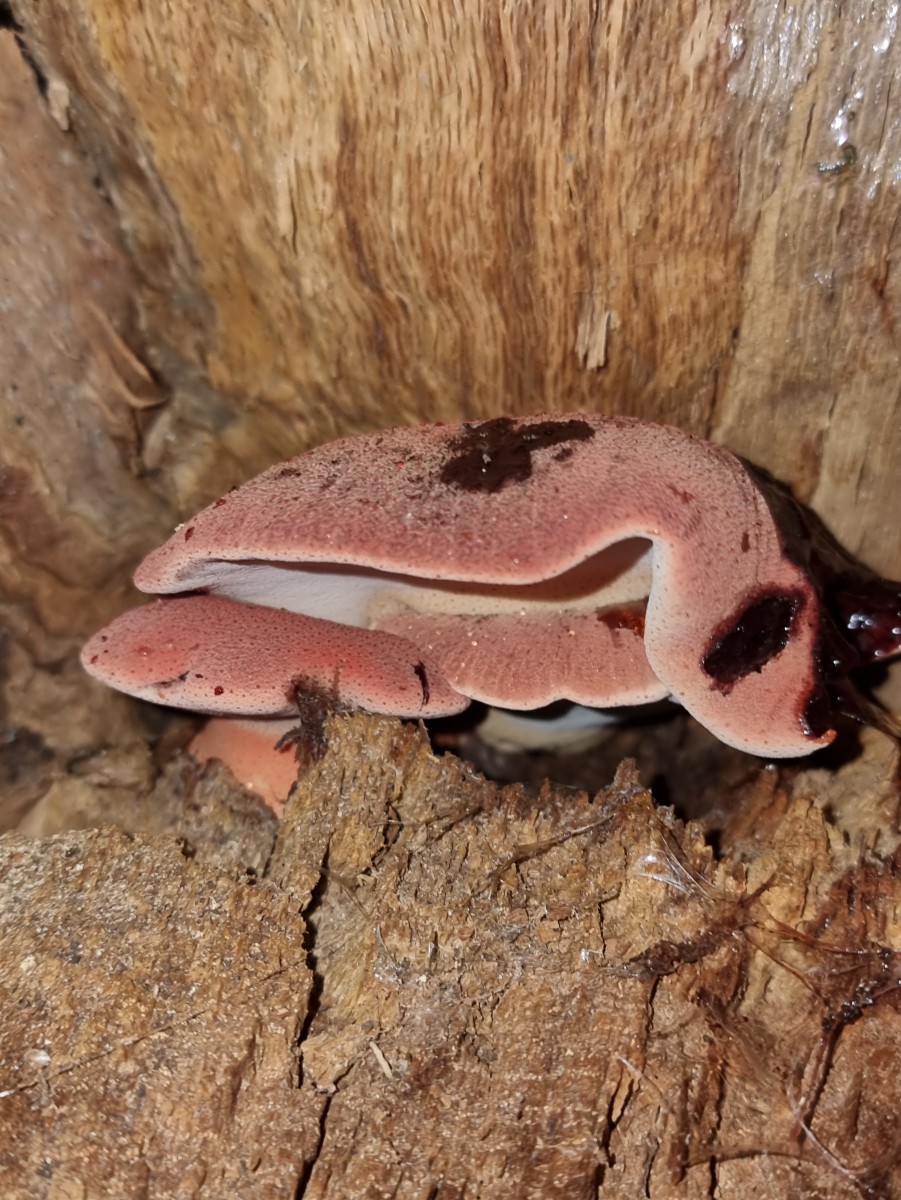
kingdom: Fungi
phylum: Basidiomycota
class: Agaricomycetes
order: Agaricales
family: Fistulinaceae
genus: Fistulina
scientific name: Fistulina hepatica
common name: oksetunge
